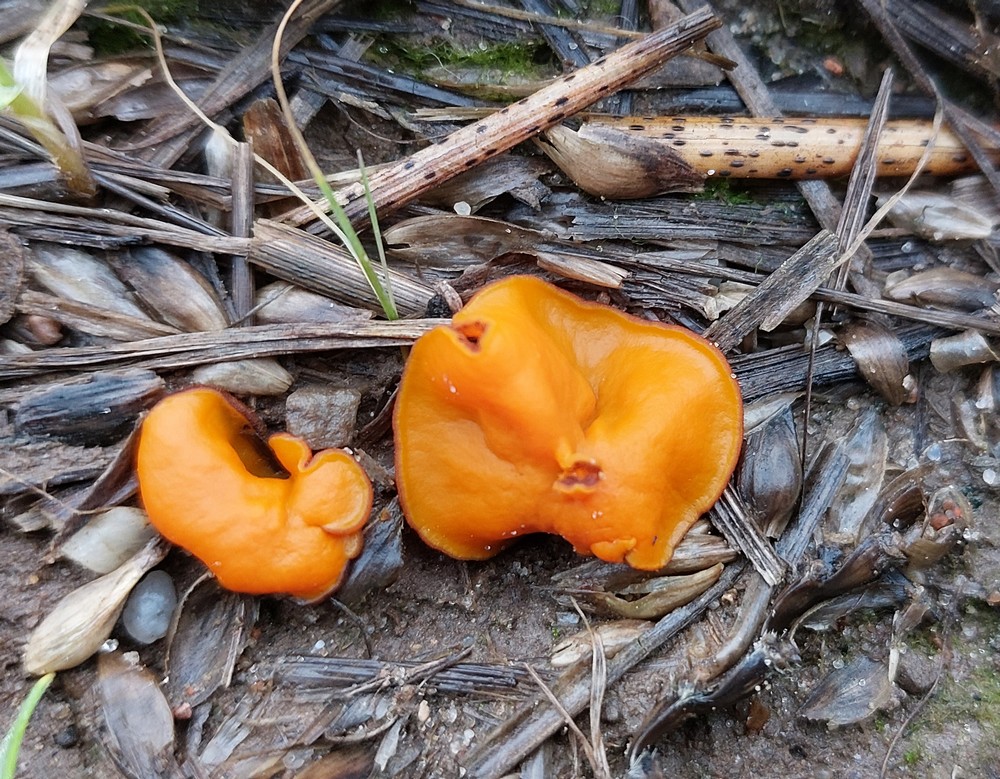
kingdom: Fungi
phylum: Ascomycota
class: Pezizomycetes
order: Pezizales
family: Pyronemataceae
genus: Melastiza
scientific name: Melastiza cornubiensis
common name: mørkrandet rødbæger
